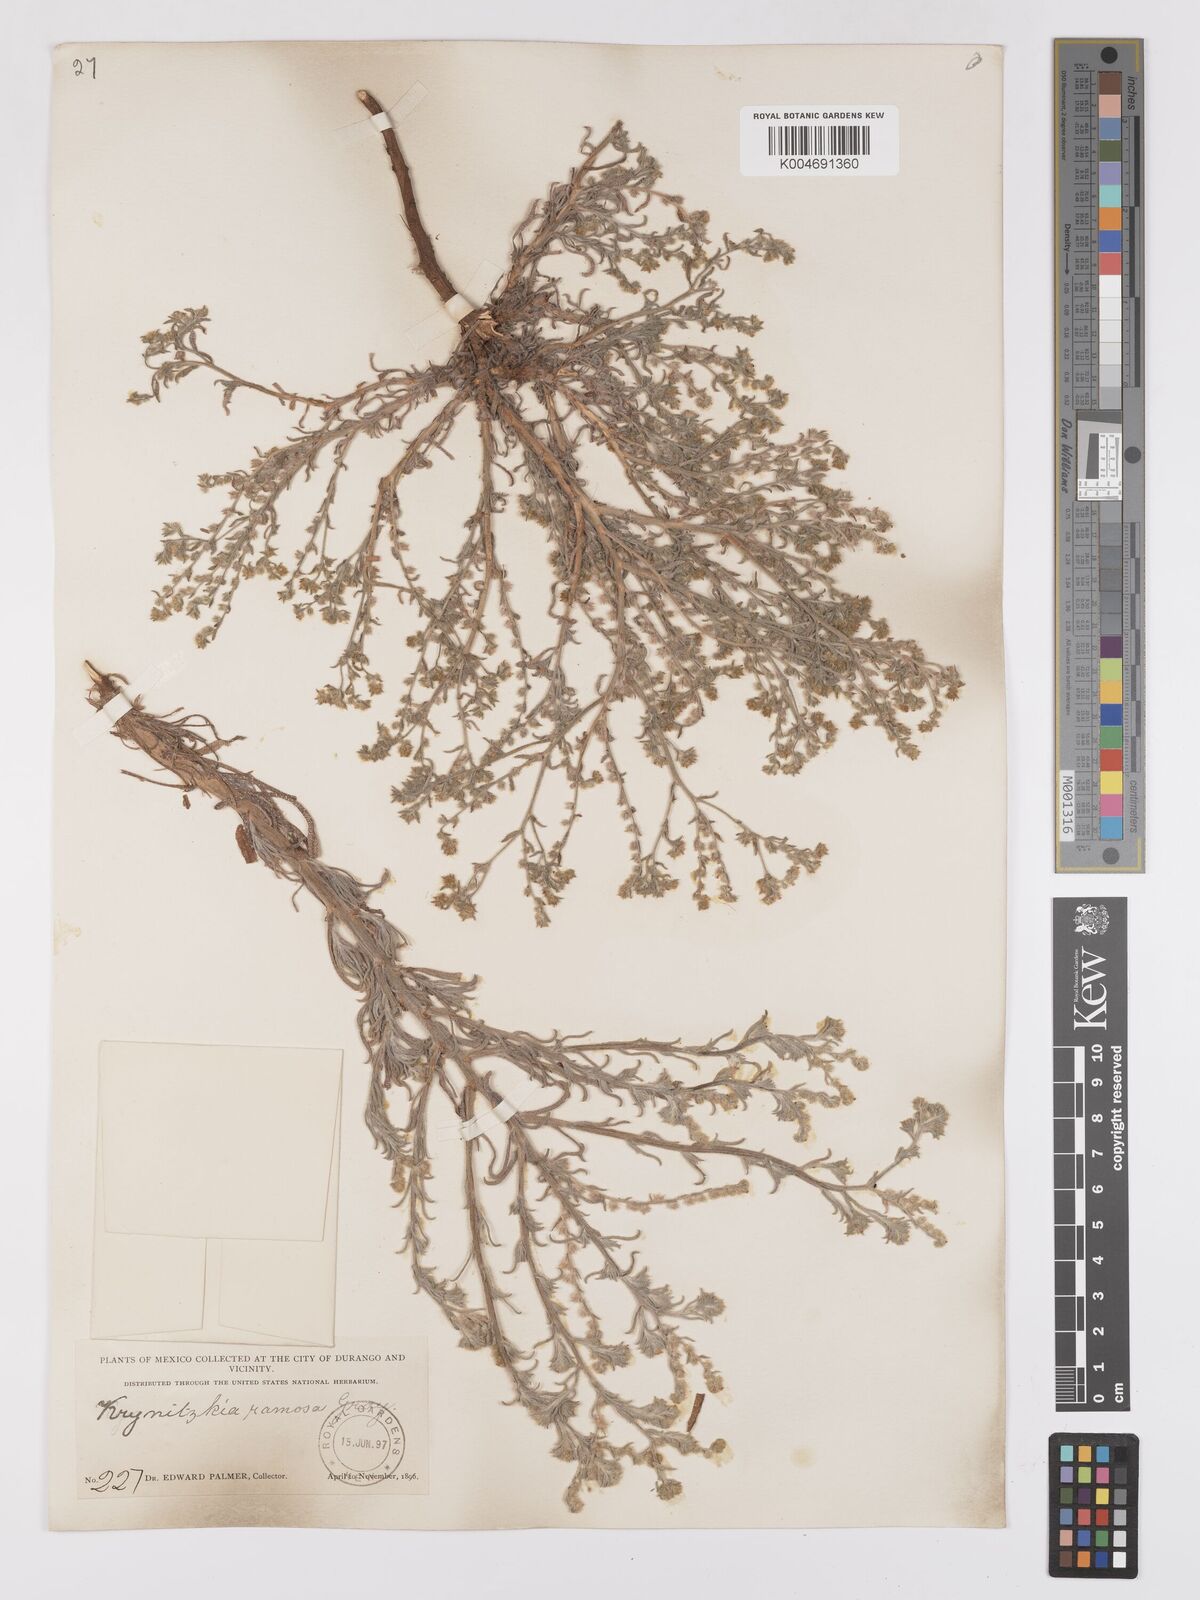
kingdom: Plantae
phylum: Tracheophyta
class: Magnoliopsida
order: Boraginales
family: Boraginaceae
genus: Johnstonella
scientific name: Johnstonella albida
